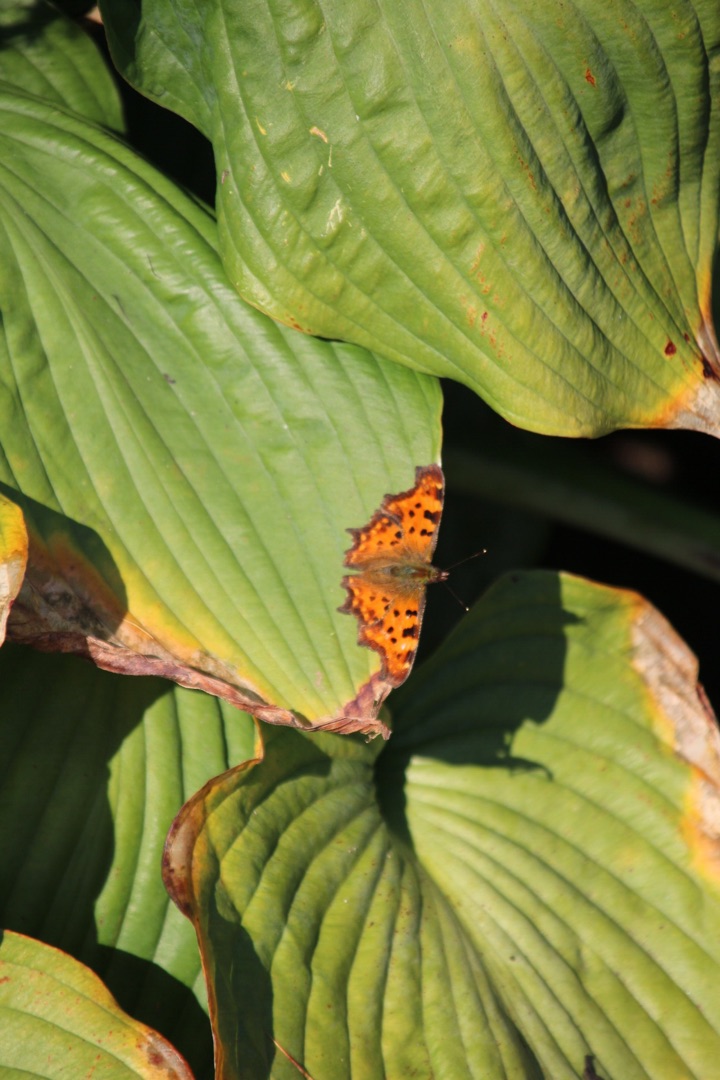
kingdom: Animalia
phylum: Arthropoda
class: Insecta
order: Lepidoptera
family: Nymphalidae
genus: Polygonia
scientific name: Polygonia c-album
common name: Det hvide C
